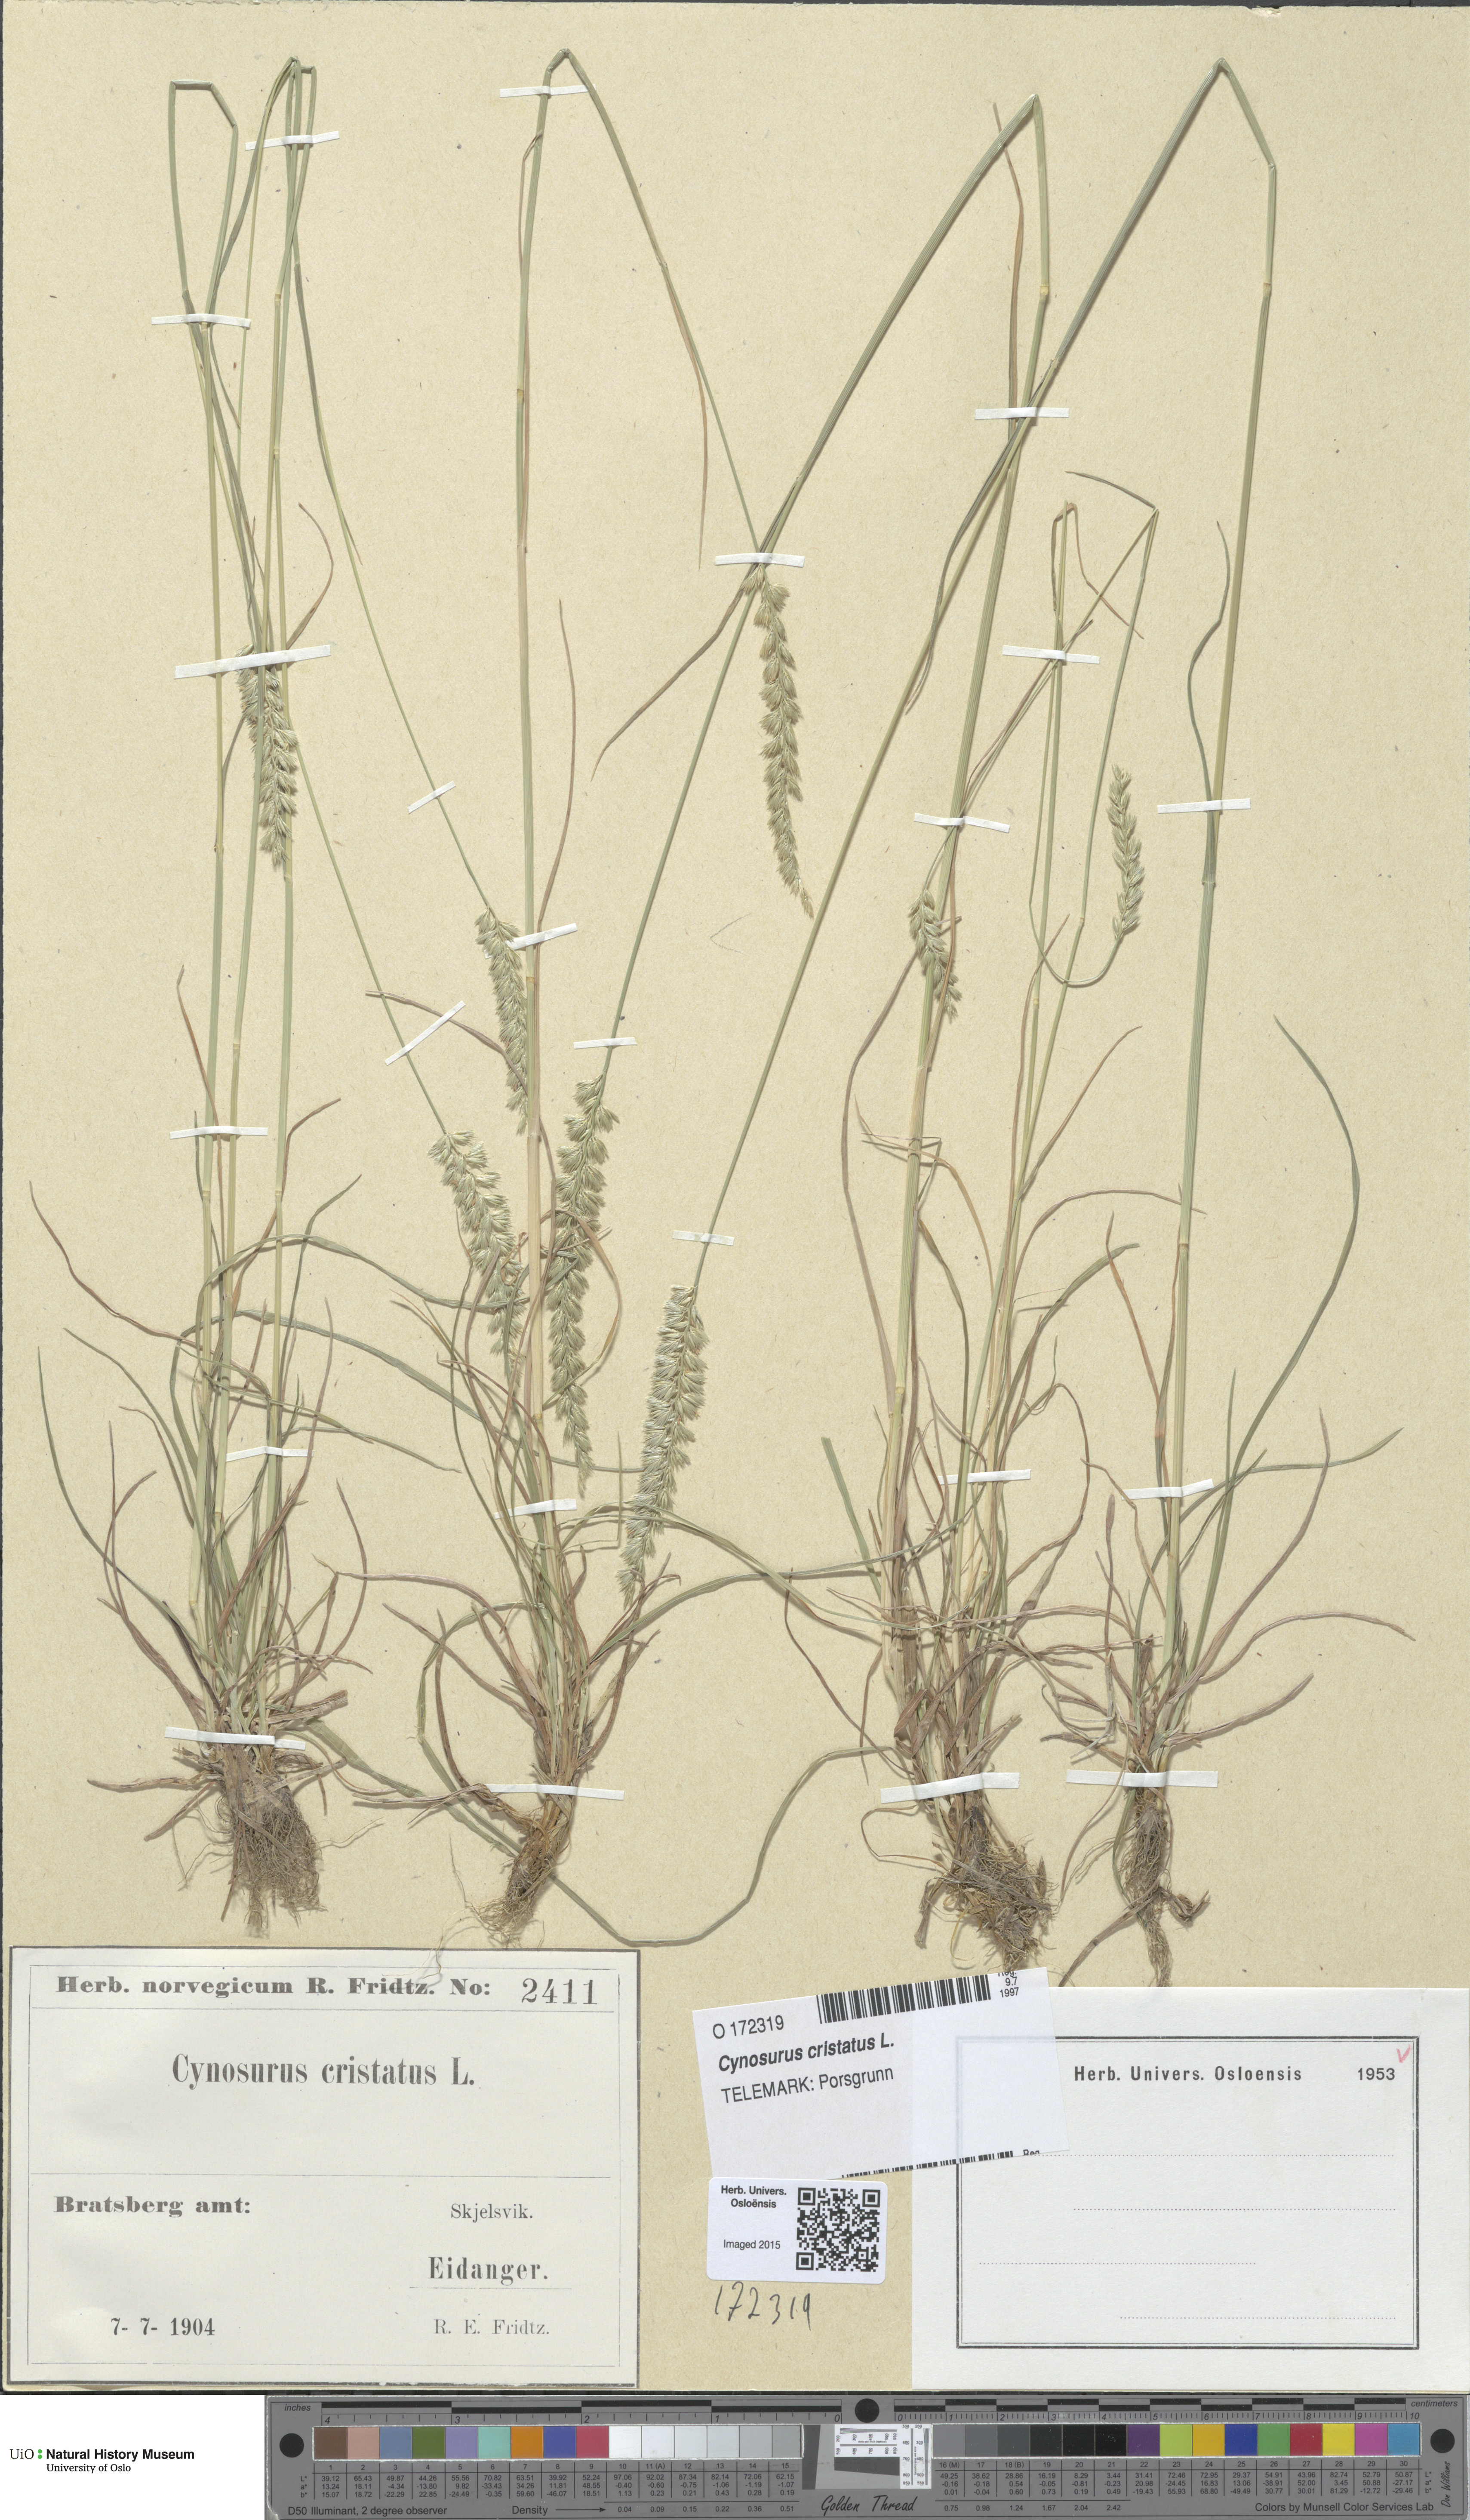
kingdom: Plantae
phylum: Tracheophyta
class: Liliopsida
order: Poales
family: Poaceae
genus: Cynosurus
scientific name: Cynosurus cristatus
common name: Crested dog's-tail
